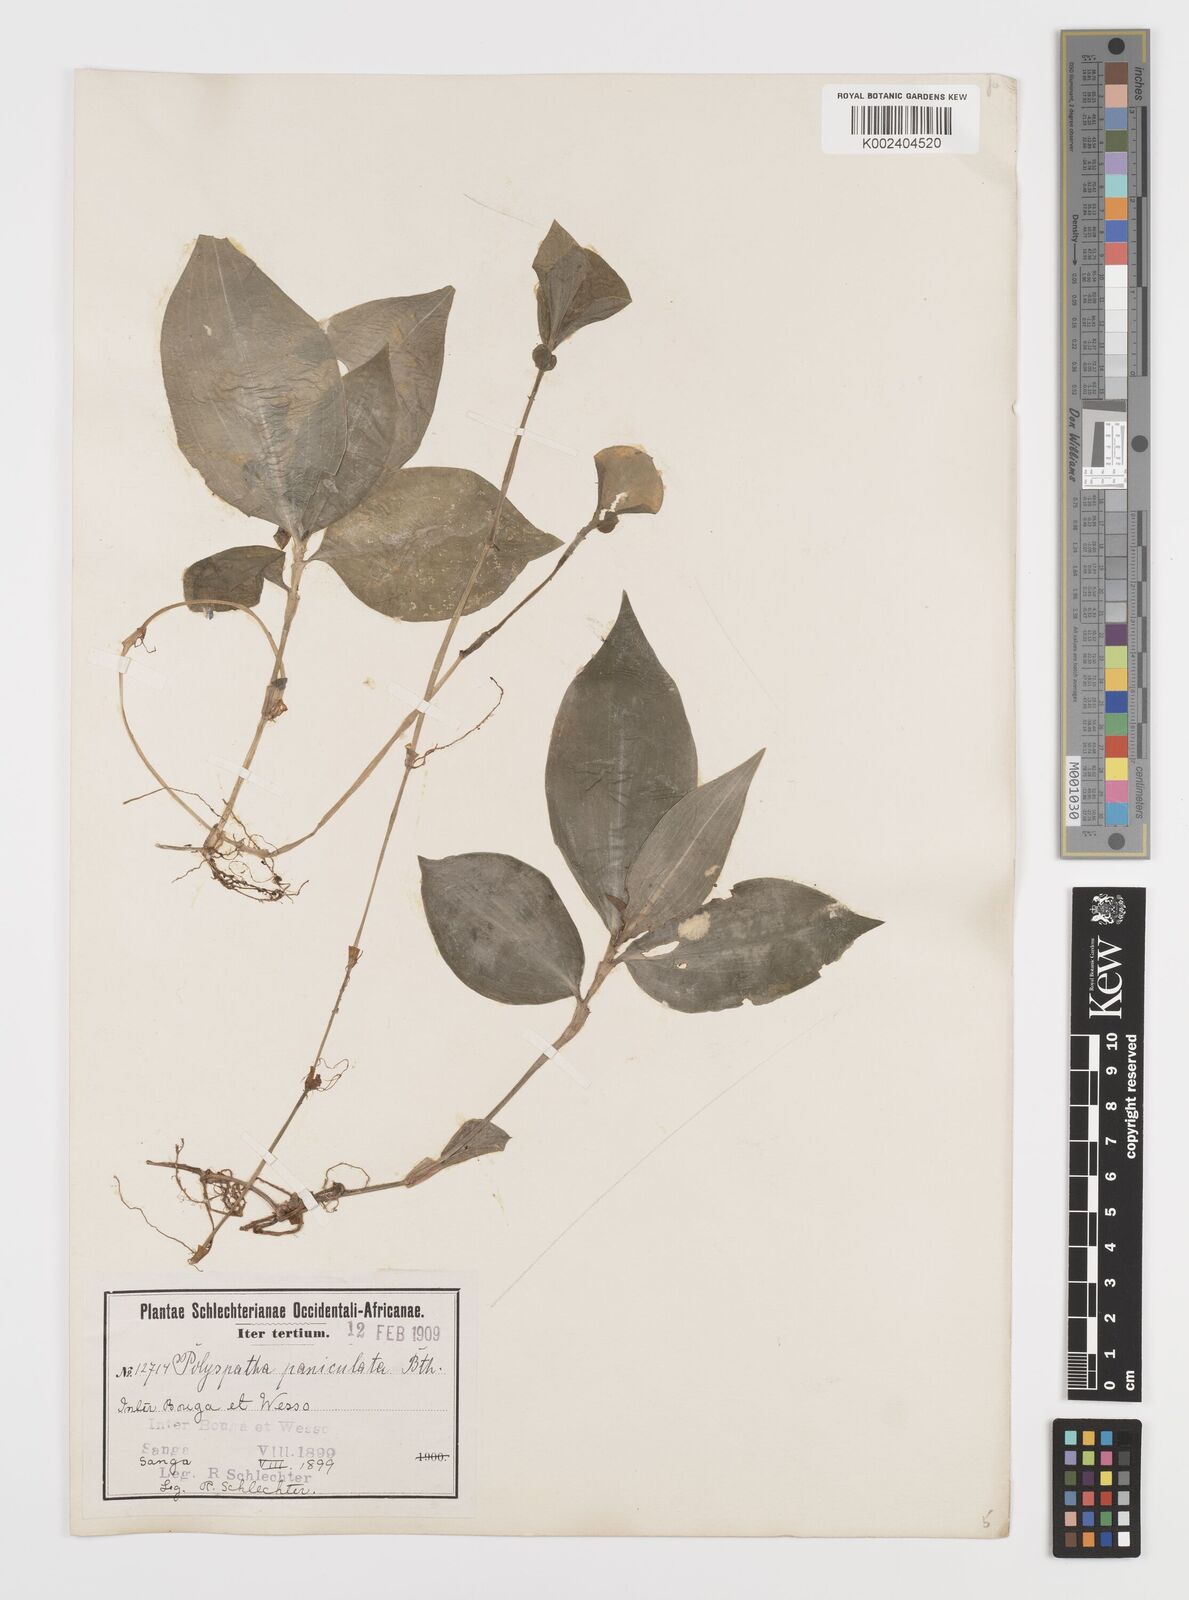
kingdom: Plantae
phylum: Tracheophyta
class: Liliopsida
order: Commelinales
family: Commelinaceae
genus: Polyspatha
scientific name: Polyspatha paniculata
